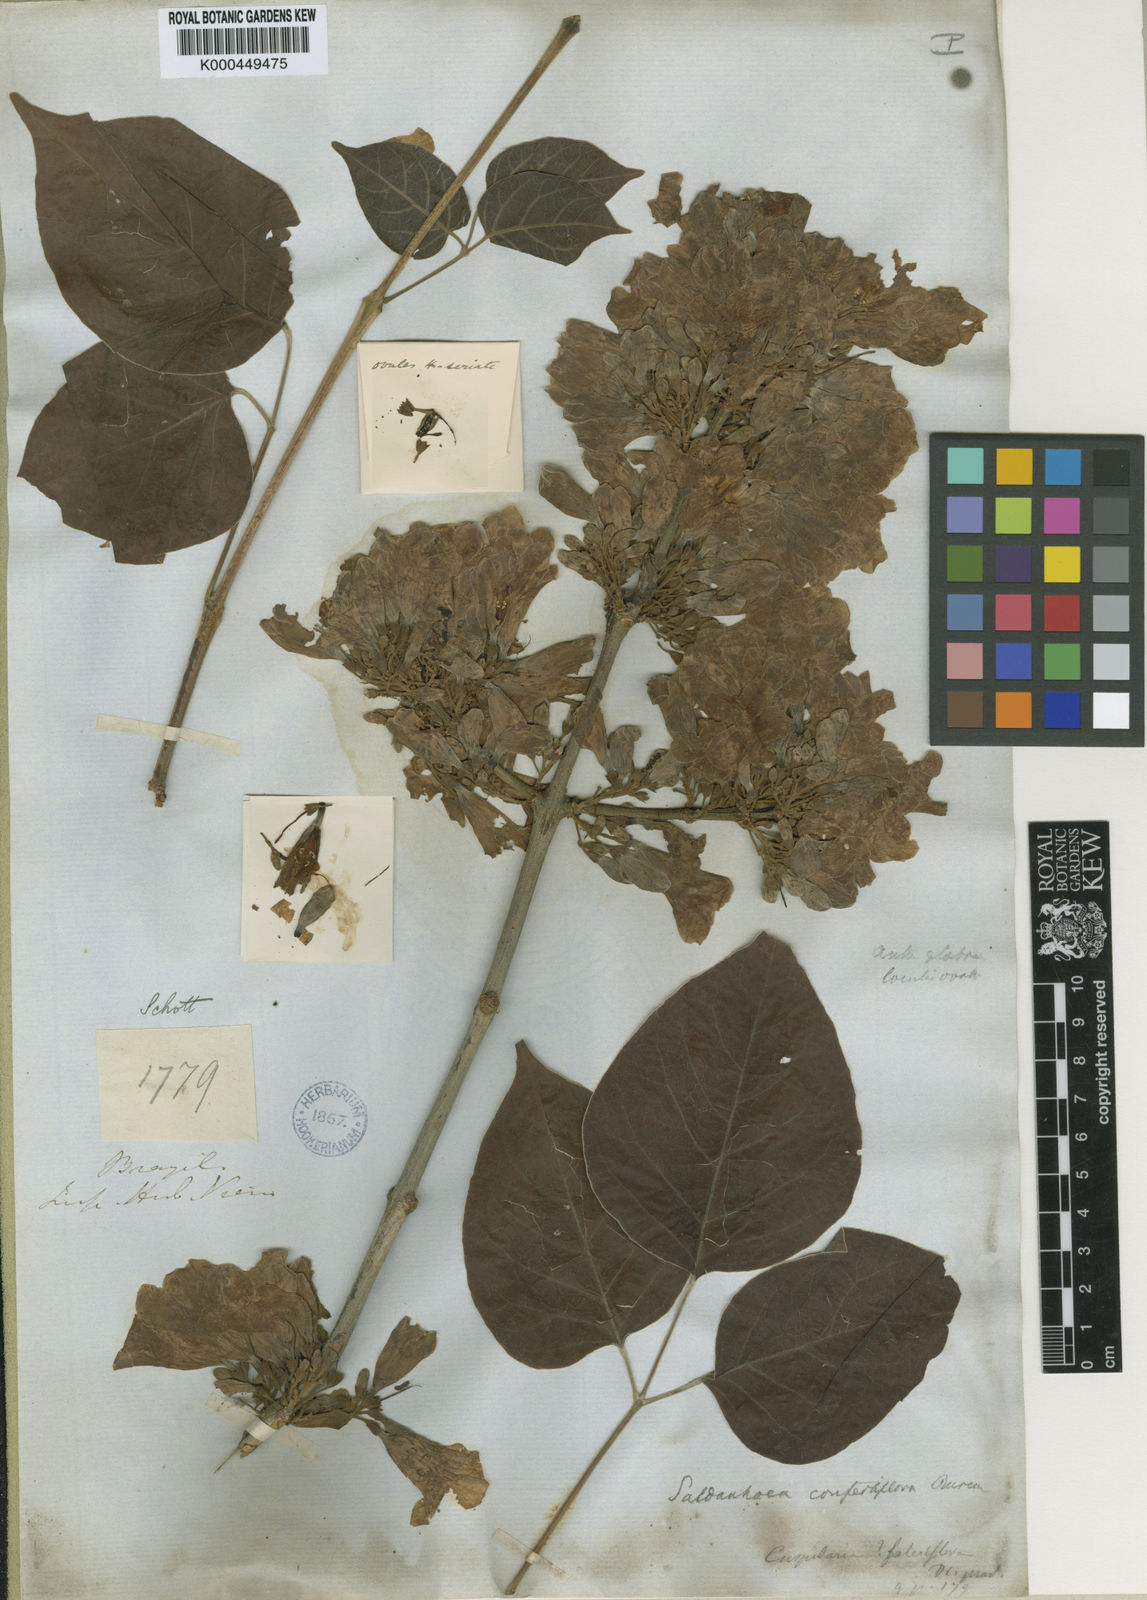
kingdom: Plantae
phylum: Tracheophyta
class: Magnoliopsida
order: Lamiales
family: Bignoniaceae
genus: Cuspidaria
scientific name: Cuspidaria
